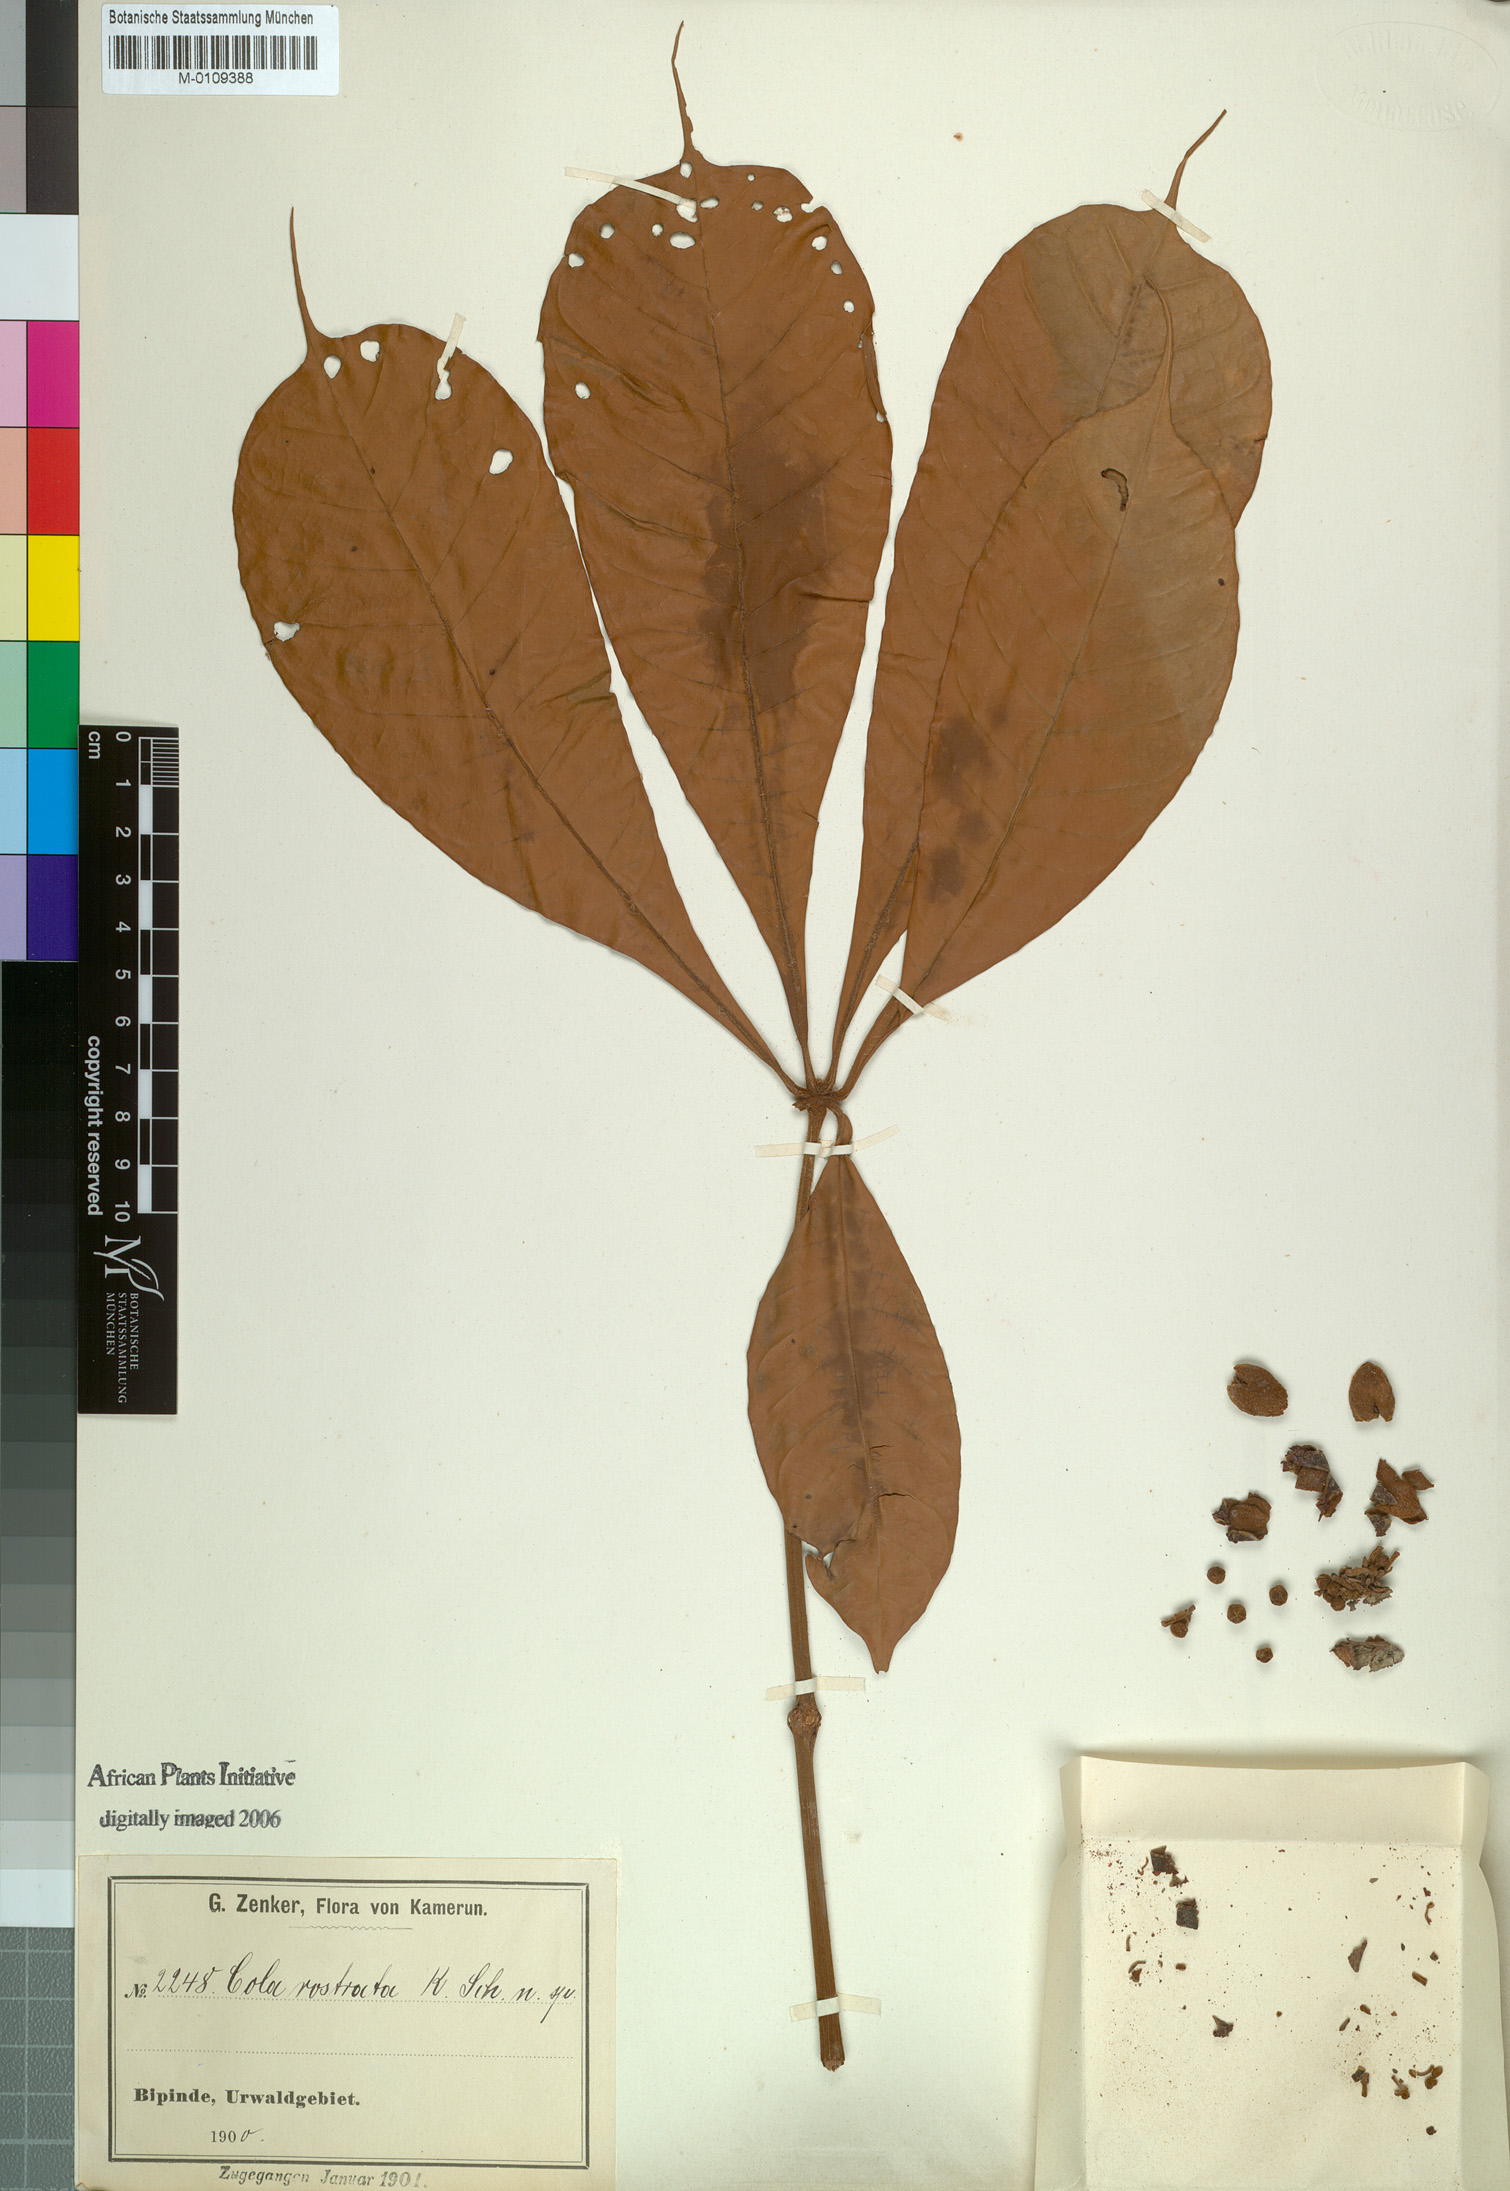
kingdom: Plantae
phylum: Tracheophyta
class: Magnoliopsida
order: Malvales
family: Malvaceae
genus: Cola
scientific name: Cola rostrata
